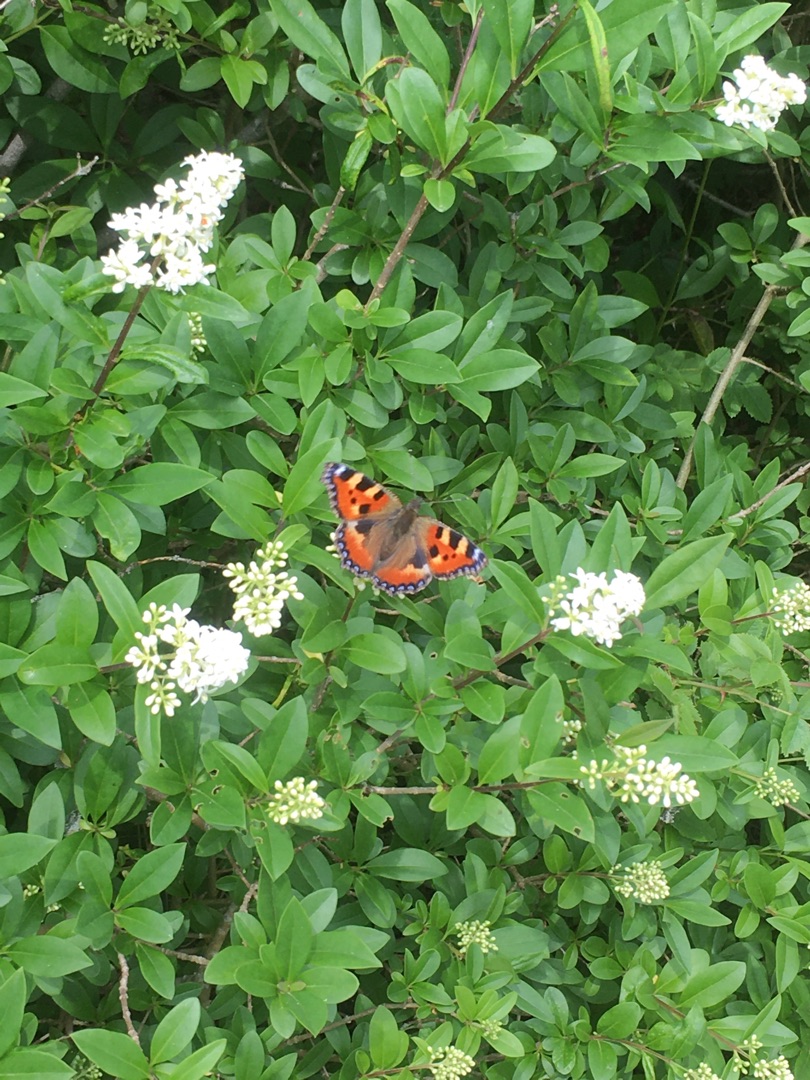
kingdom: Animalia
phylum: Arthropoda
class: Insecta
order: Lepidoptera
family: Nymphalidae
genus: Aglais
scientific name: Aglais urticae
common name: Nældens takvinge
